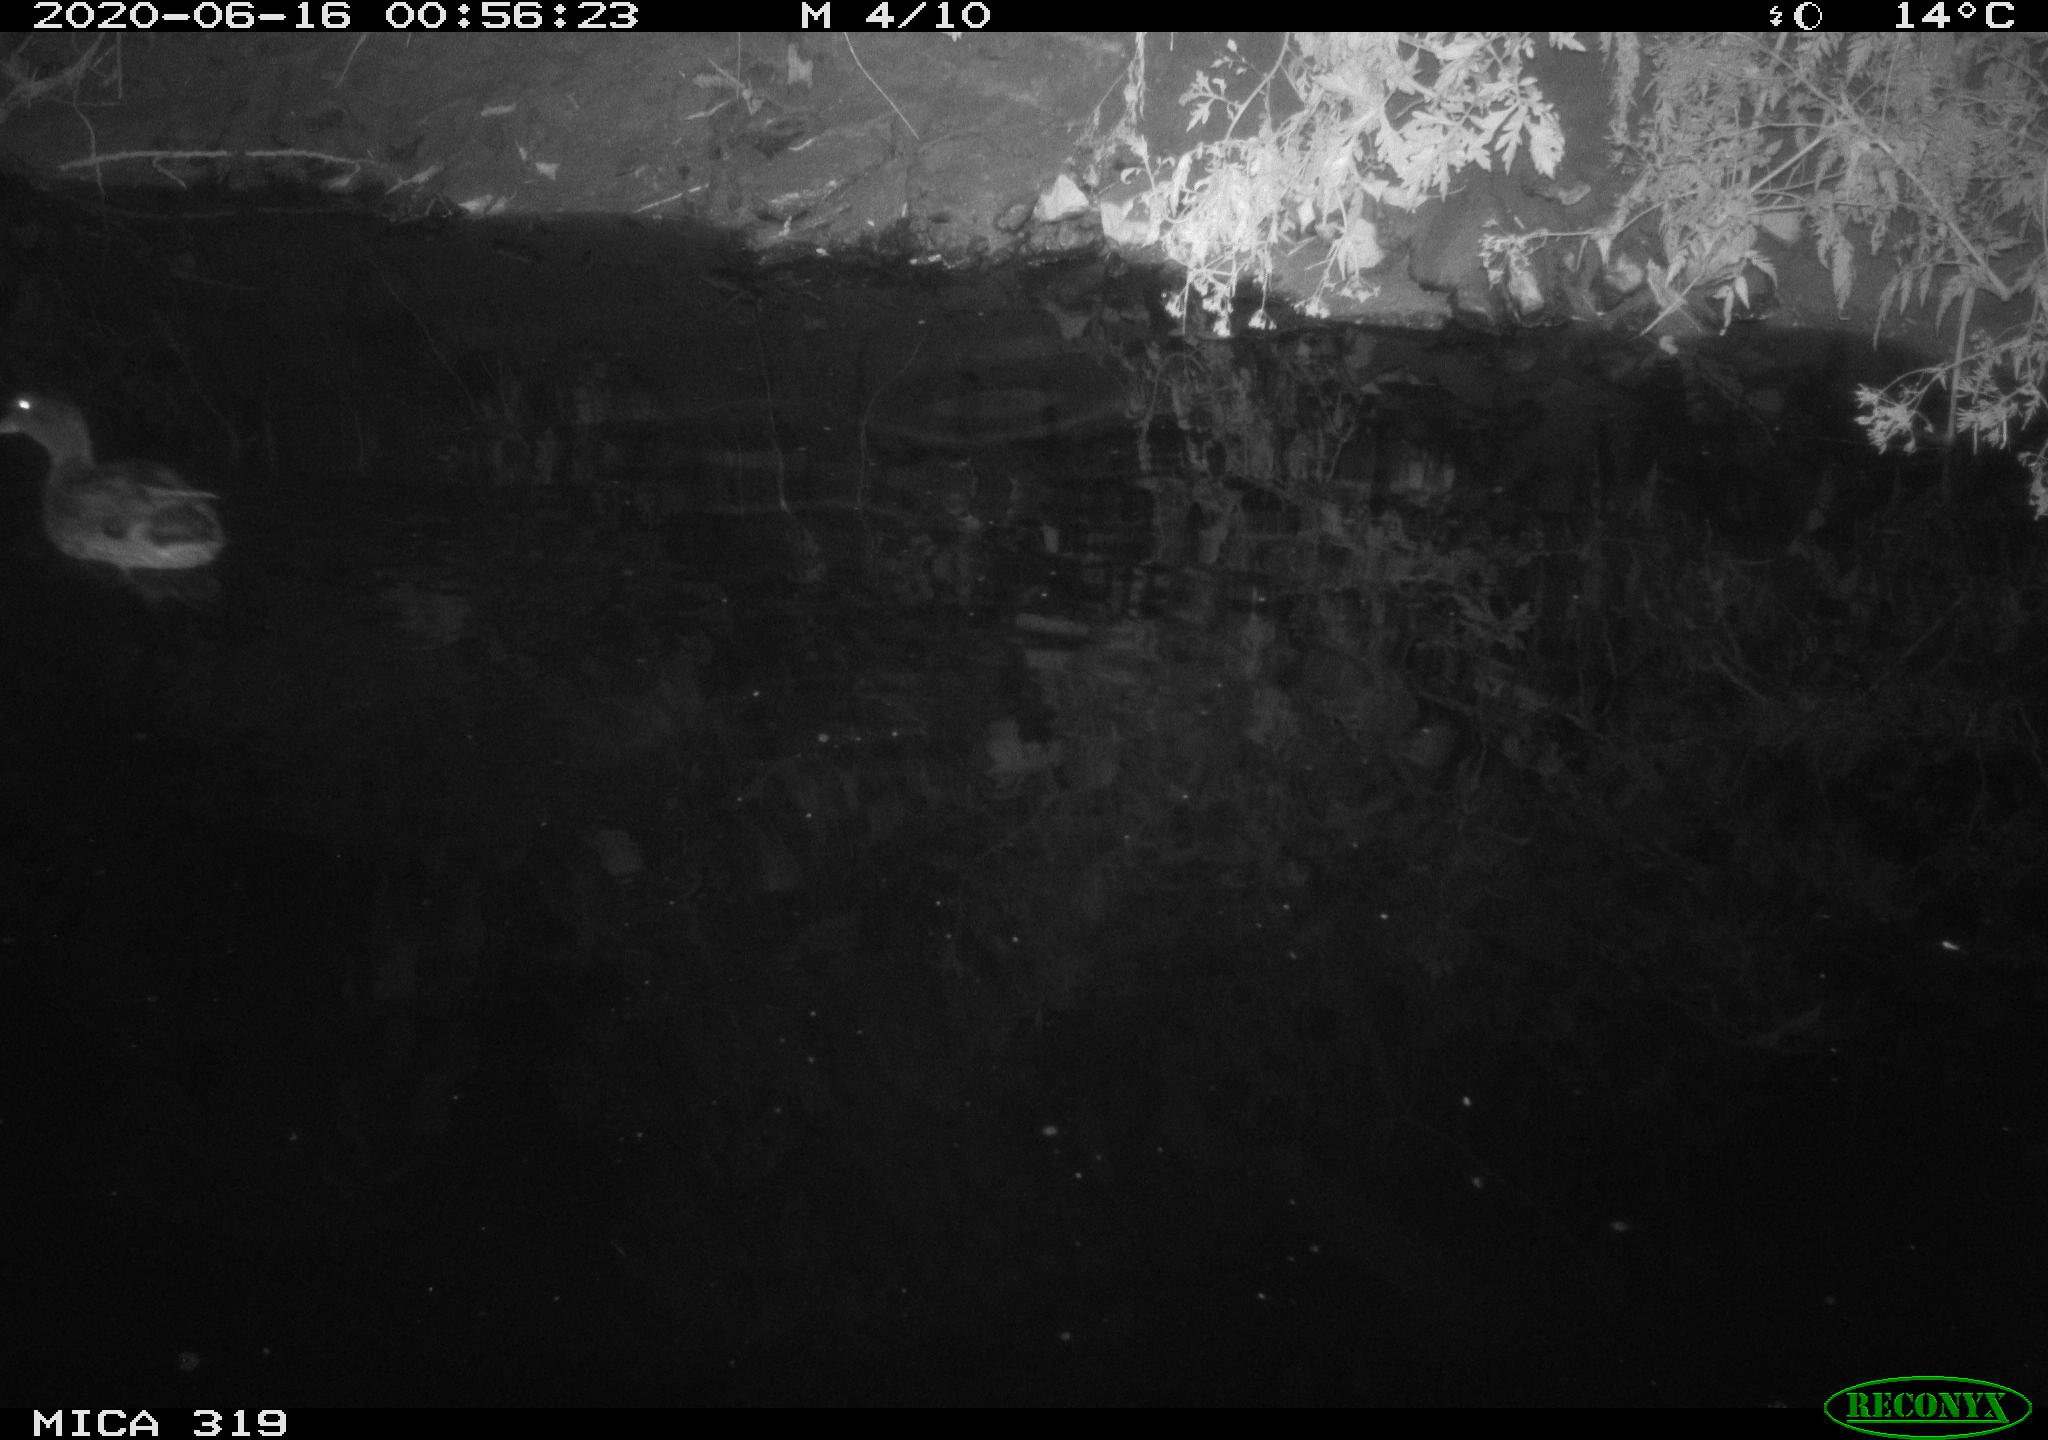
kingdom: Animalia
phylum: Chordata
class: Aves
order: Anseriformes
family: Anatidae
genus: Anas
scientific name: Anas platyrhynchos
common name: Mallard
